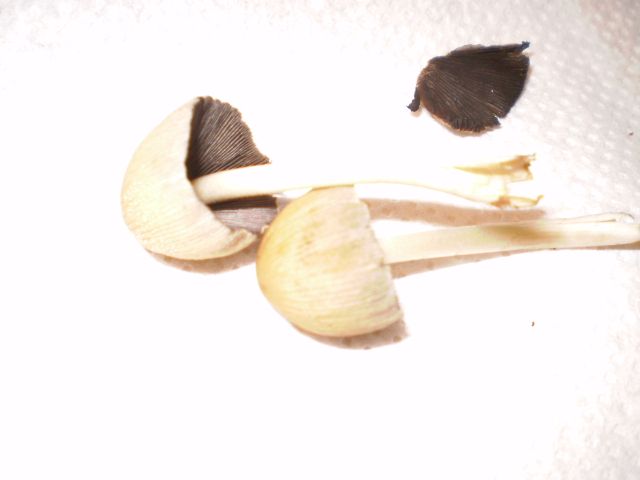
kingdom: Fungi
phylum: Basidiomycota
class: Agaricomycetes
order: Agaricales
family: Psathyrellaceae
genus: Coprinellus
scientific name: Coprinellus micaceus
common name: glimmer-blækhat
